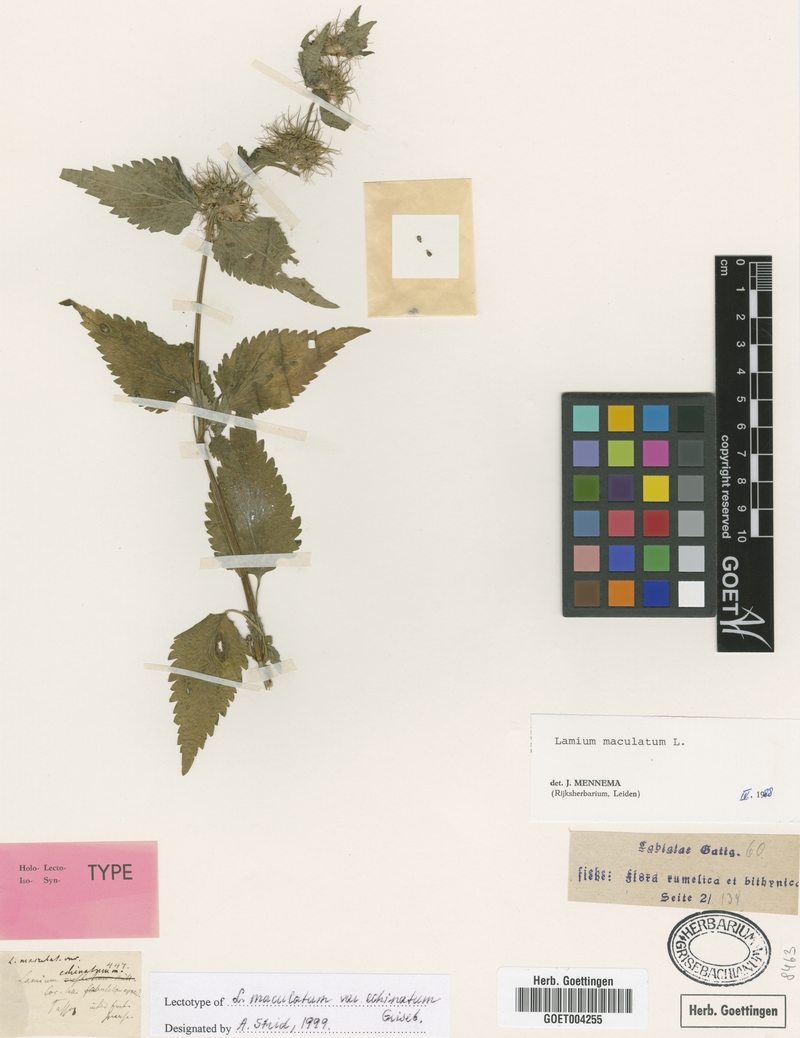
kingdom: Plantae
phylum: Tracheophyta
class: Magnoliopsida
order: Lamiales
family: Lamiaceae
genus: Lamium
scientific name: Lamium maculatum
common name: Spotted dead-nettle
